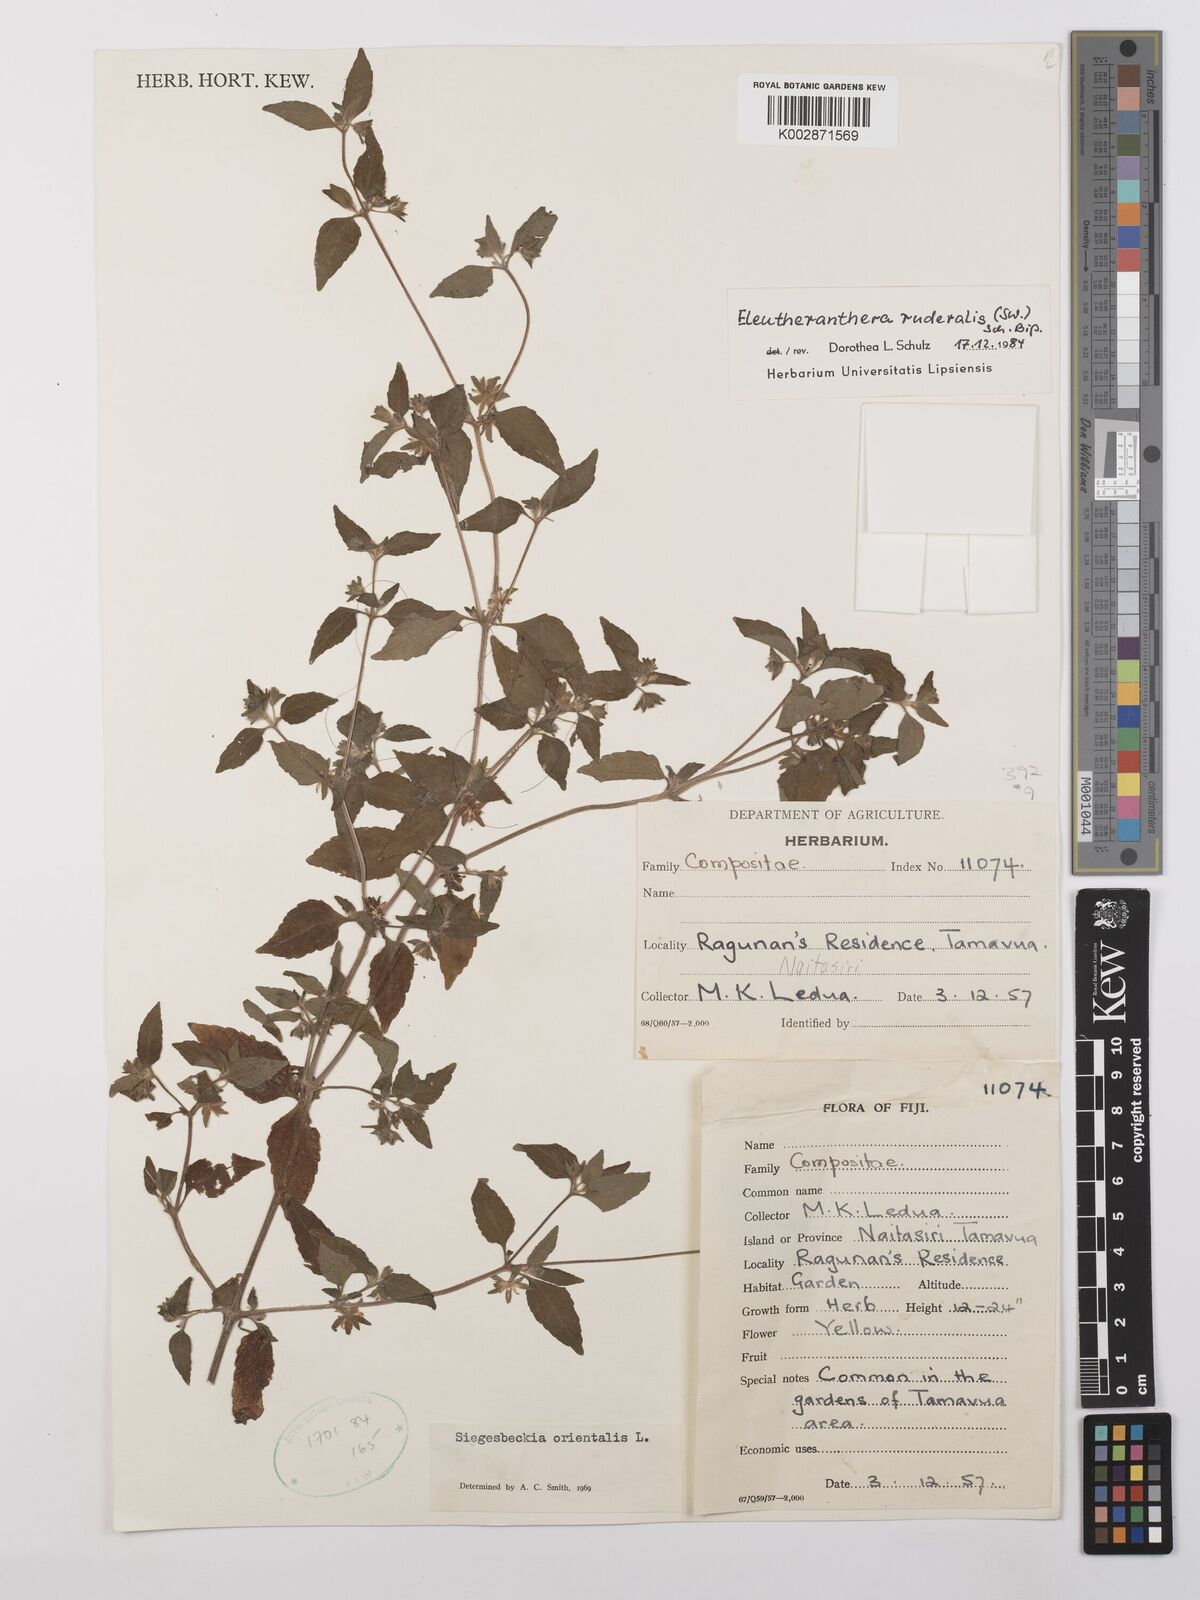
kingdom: Plantae
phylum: Tracheophyta
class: Magnoliopsida
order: Asterales
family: Asteraceae
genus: Eleutheranthera
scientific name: Eleutheranthera ruderalis
